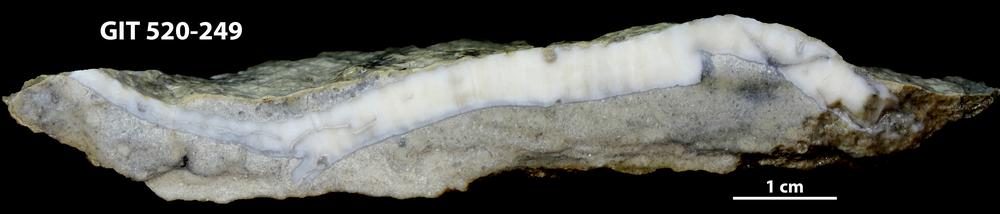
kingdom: Animalia
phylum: Cnidaria
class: Anthozoa
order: Heliolitina
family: Coccoserididae
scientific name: Coccoserididae
